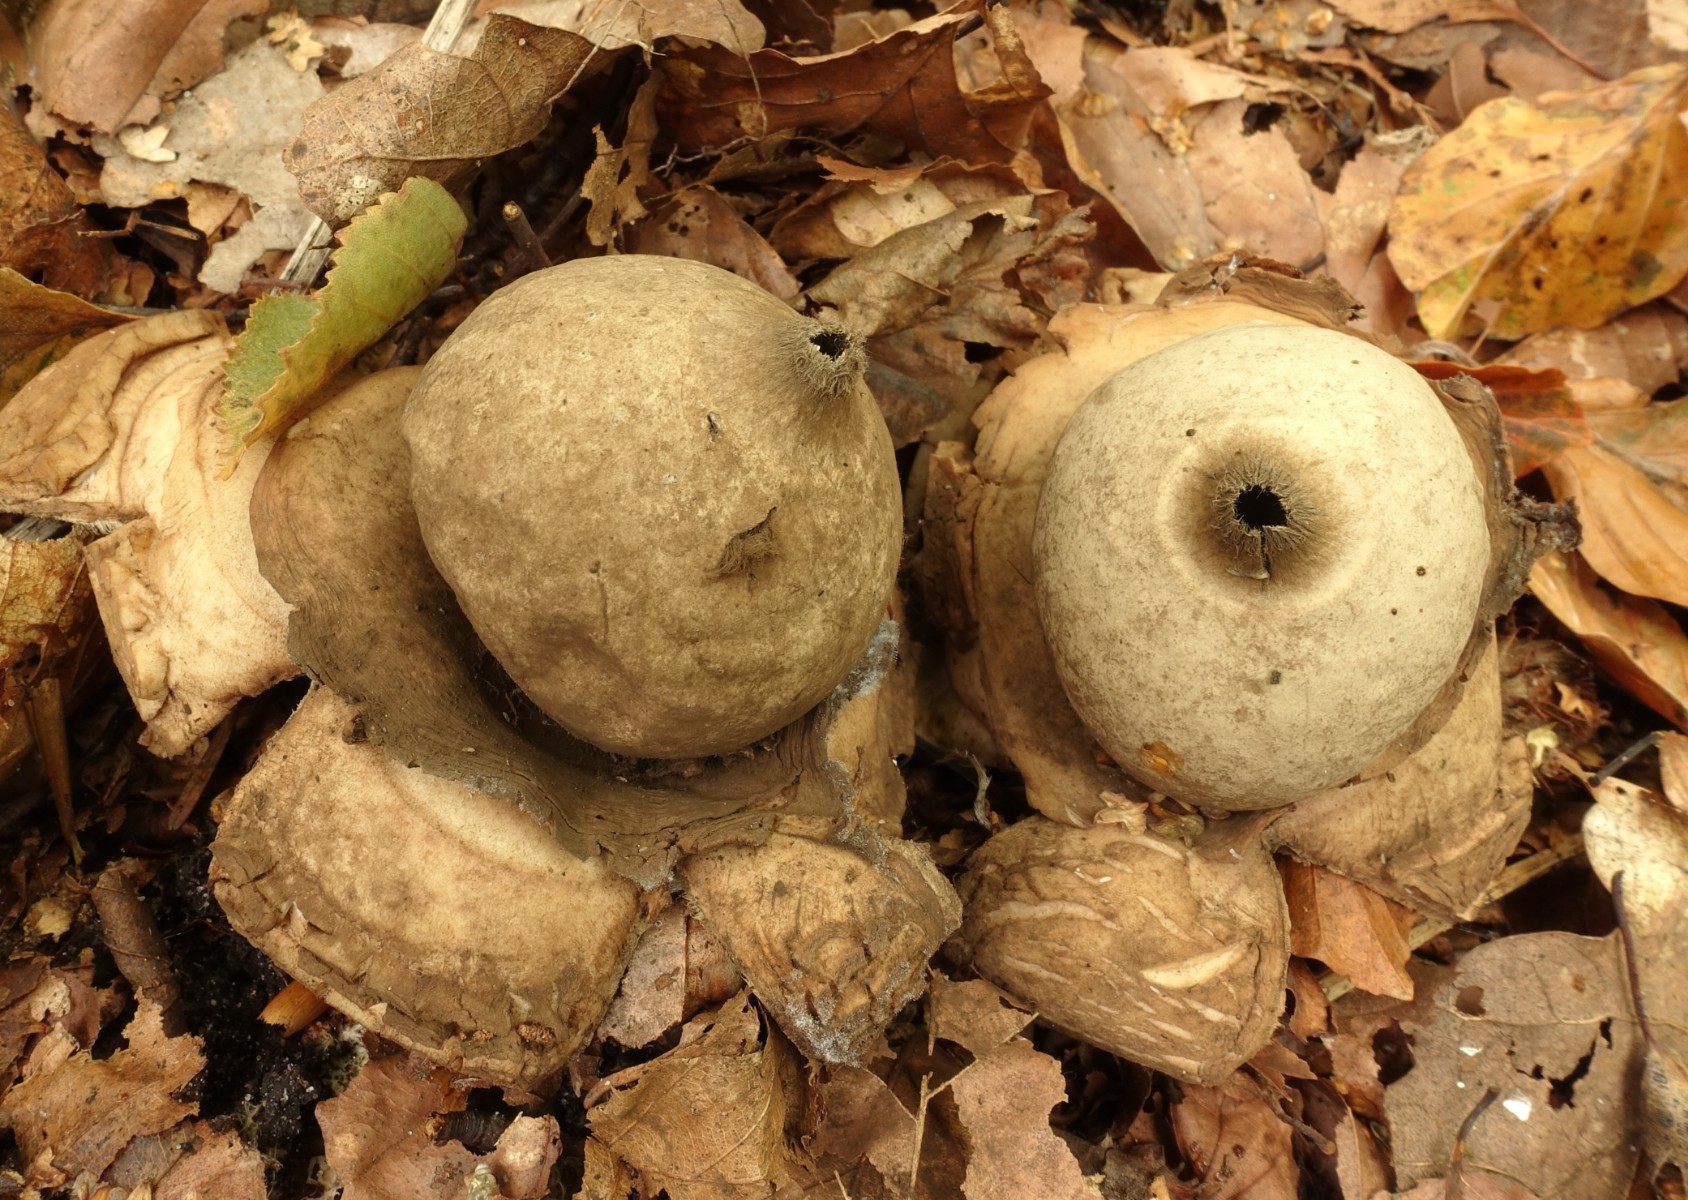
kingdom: Fungi
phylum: Basidiomycota
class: Agaricomycetes
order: Geastrales
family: Geastraceae
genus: Geastrum
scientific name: Geastrum michelianum
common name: kødet stjernebold
